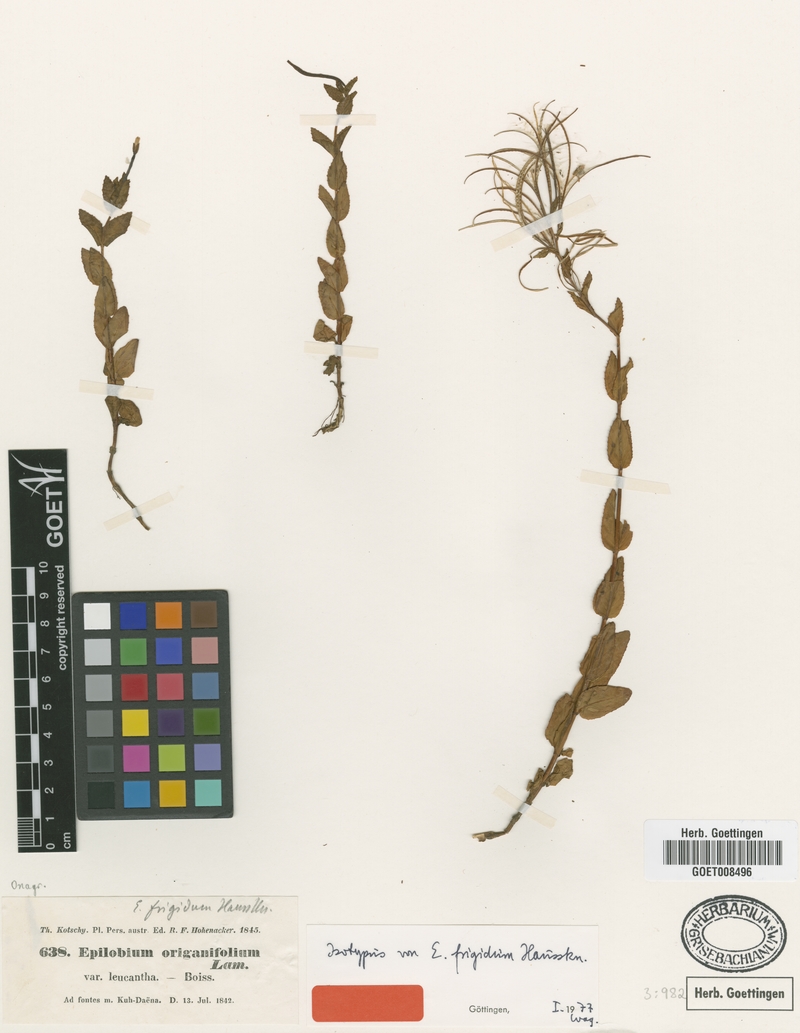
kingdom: Plantae
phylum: Tracheophyta
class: Magnoliopsida
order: Myrtales
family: Onagraceae
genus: Epilobium
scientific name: Epilobium ponticum
